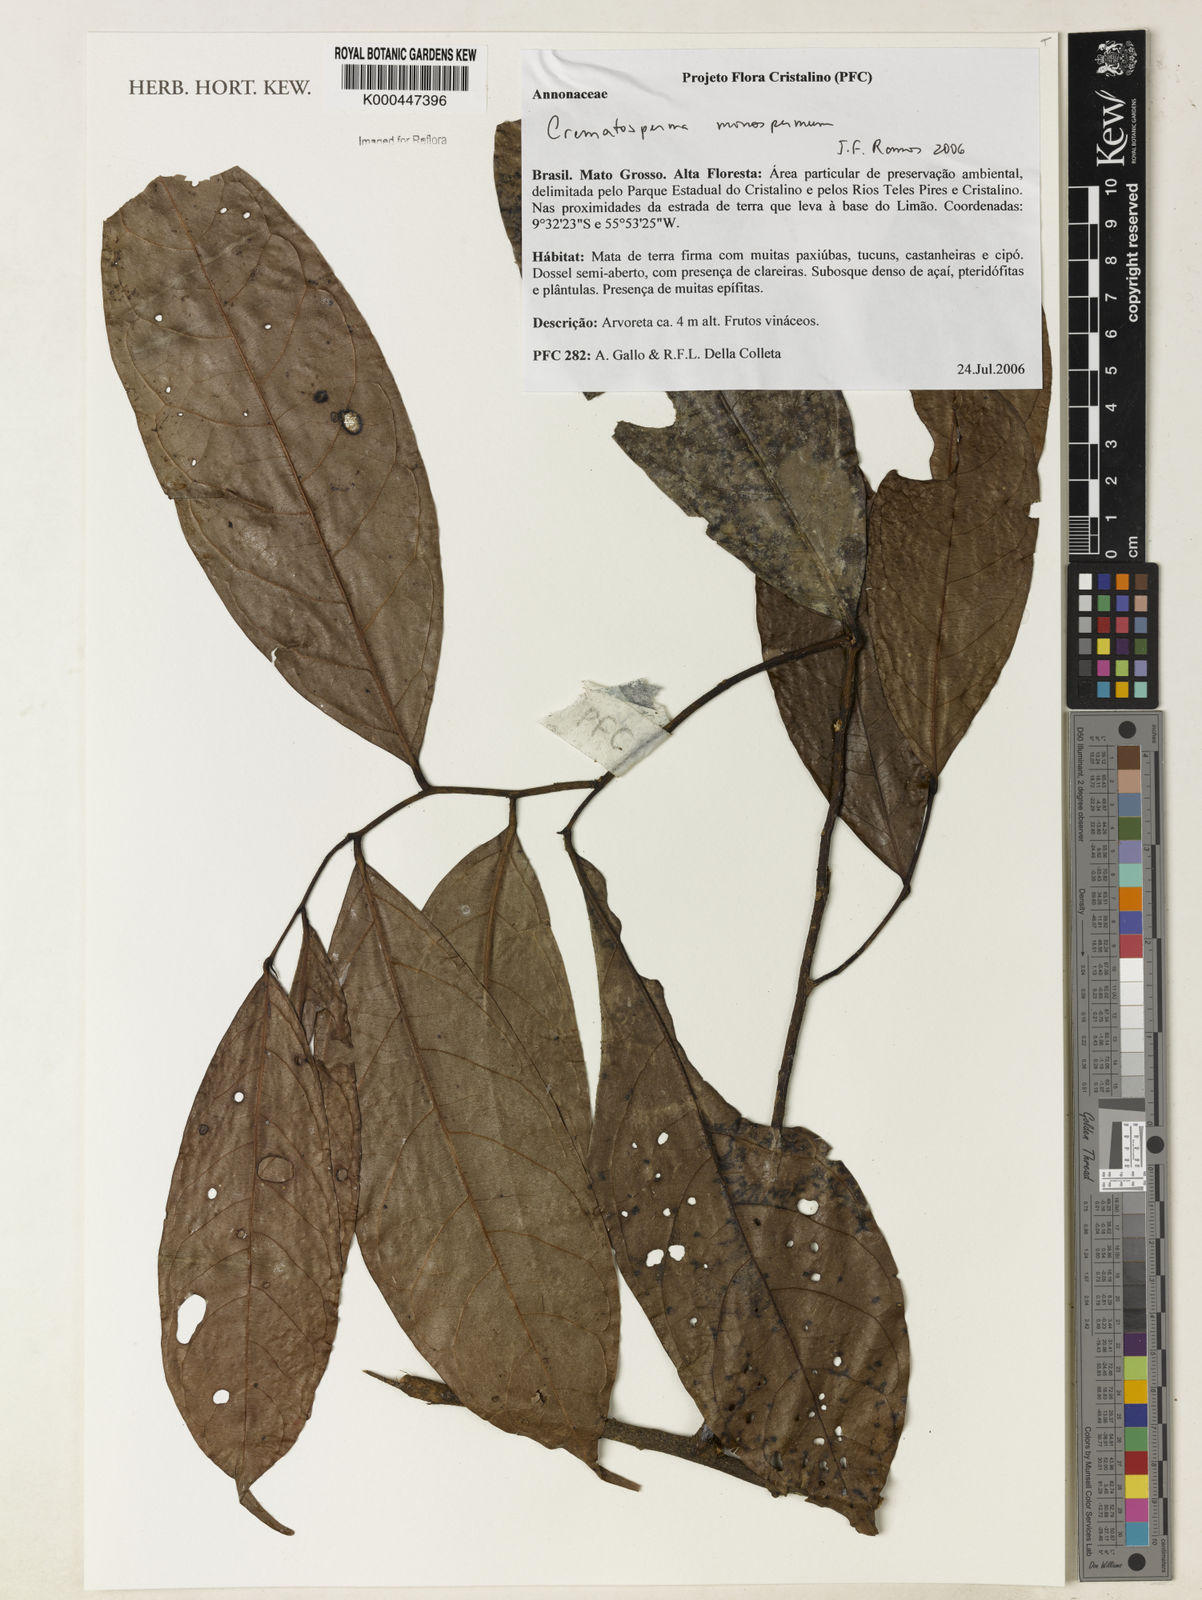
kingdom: Plantae
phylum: Tracheophyta
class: Magnoliopsida
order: Magnoliales
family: Annonaceae
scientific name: Annonaceae
